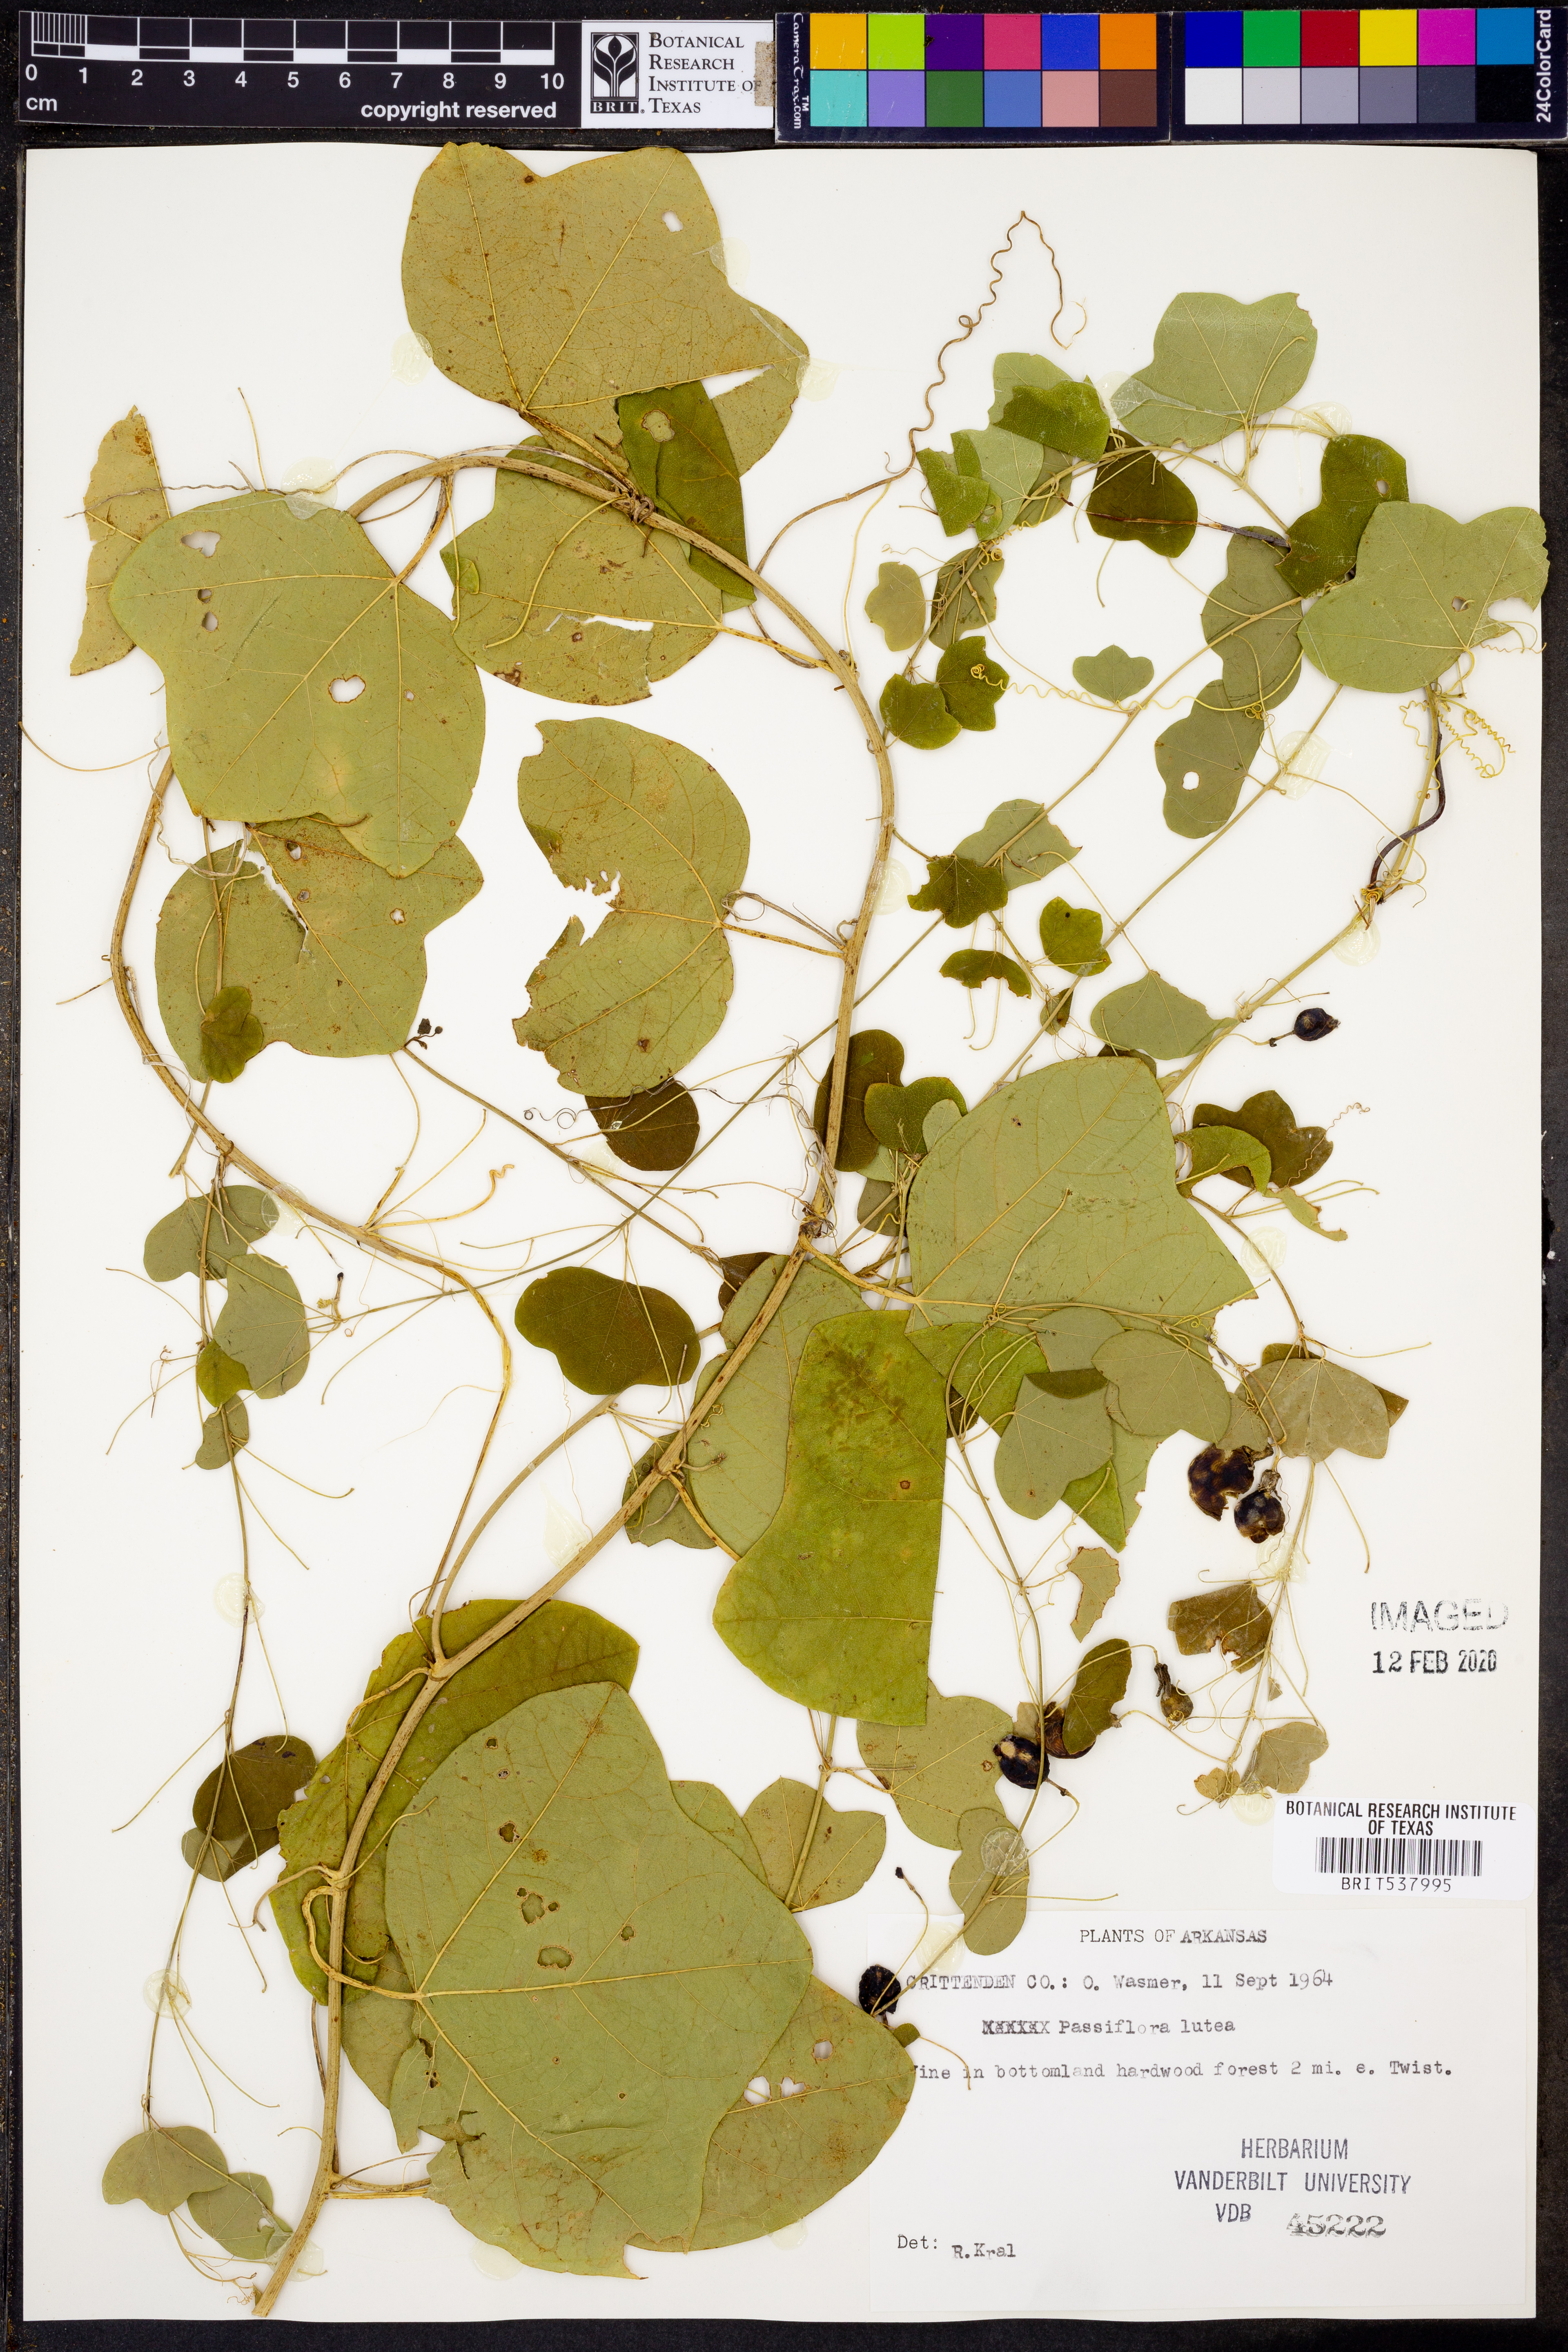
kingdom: Plantae
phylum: Tracheophyta
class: Magnoliopsida
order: Malpighiales
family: Passifloraceae
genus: Passiflora
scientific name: Passiflora lutea
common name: Yellow passionflower
